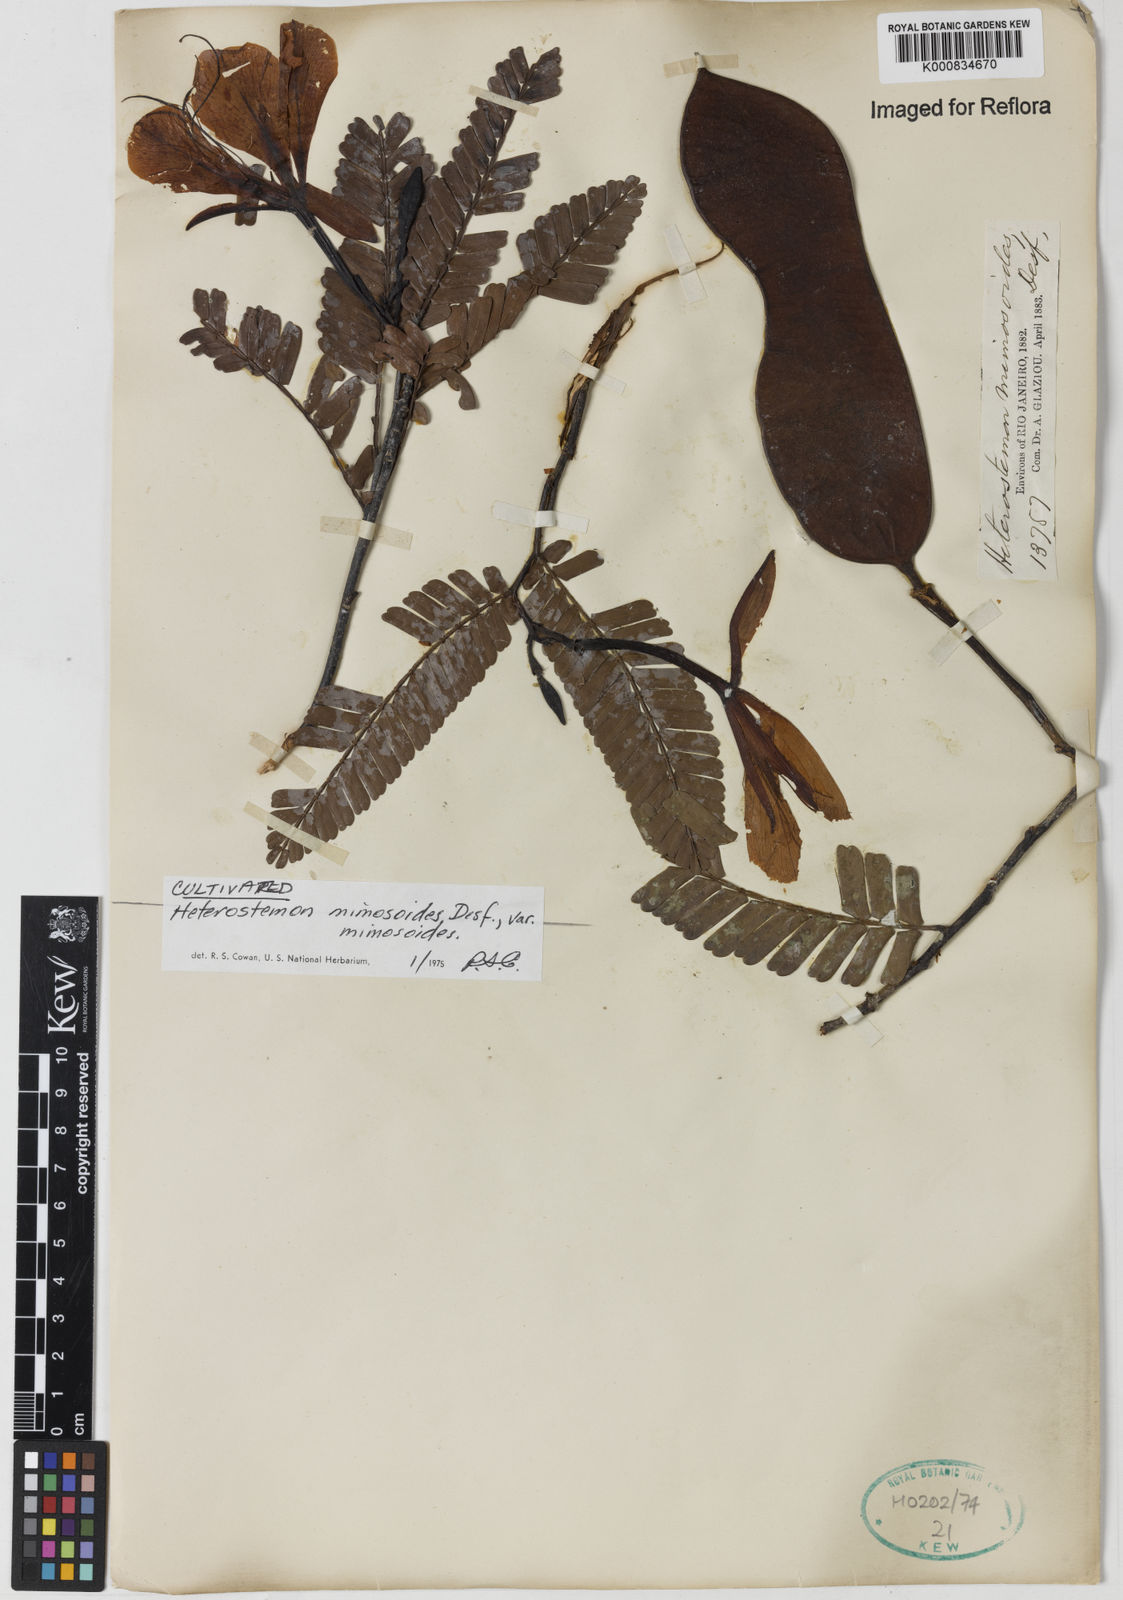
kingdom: Plantae
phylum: Tracheophyta
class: Magnoliopsida
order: Fabales
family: Fabaceae
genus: Heterostemon
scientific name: Heterostemon mimosoides
